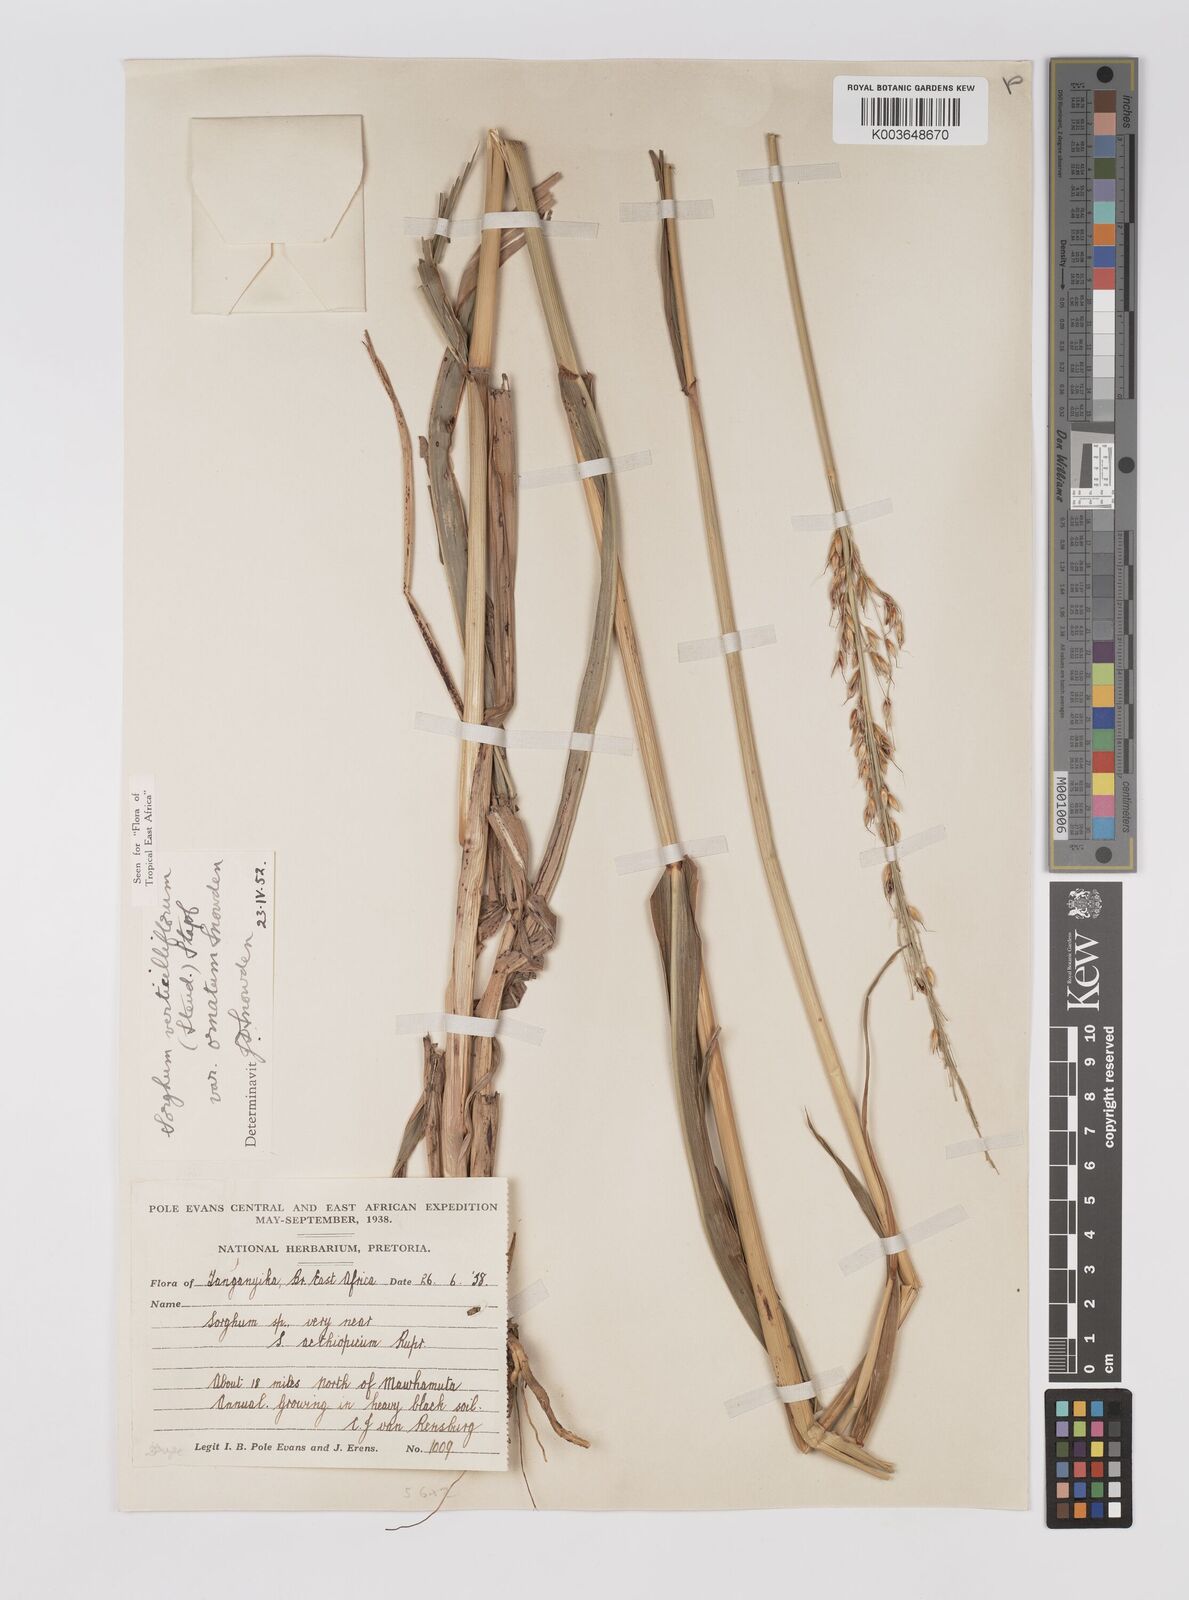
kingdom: Plantae
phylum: Tracheophyta
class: Liliopsida
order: Poales
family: Poaceae
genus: Sorghum
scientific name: Sorghum arundinaceum
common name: Sorghum
